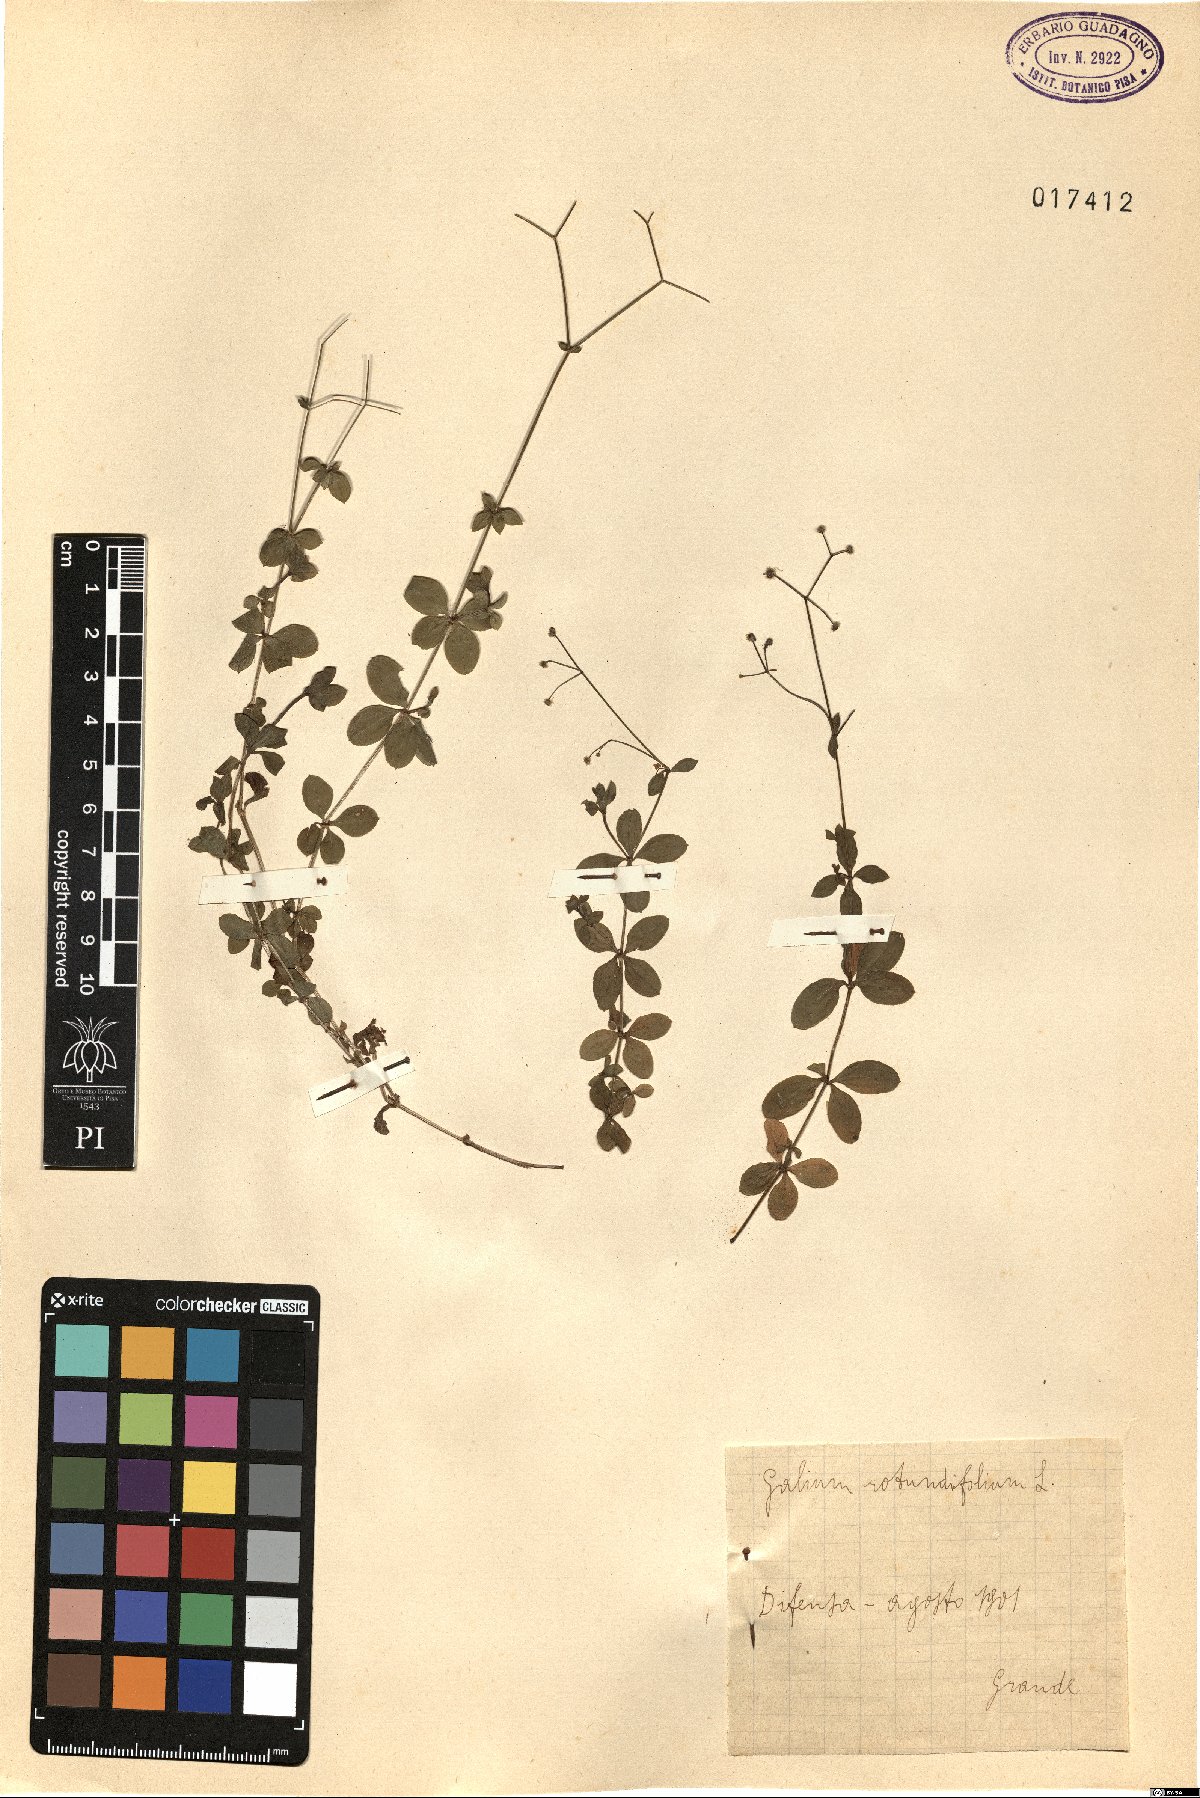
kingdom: Plantae
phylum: Tracheophyta
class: Magnoliopsida
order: Gentianales
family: Rubiaceae
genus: Galium
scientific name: Galium rotundifolium
